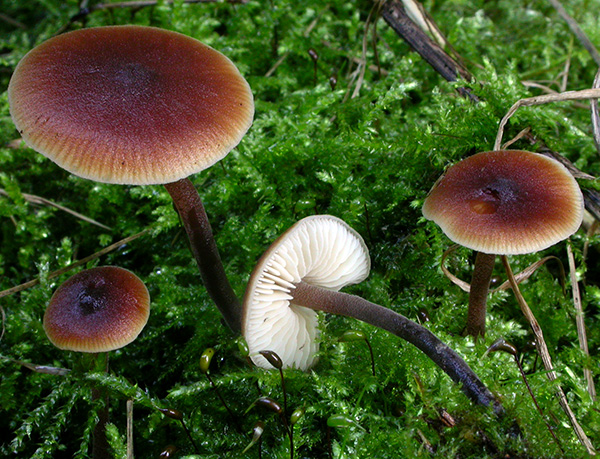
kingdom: Fungi
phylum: Basidiomycota
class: Agaricomycetes
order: Agaricales
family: Macrocystidiaceae
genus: Macrocystidia
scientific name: Macrocystidia cucumis
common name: agurkehat
